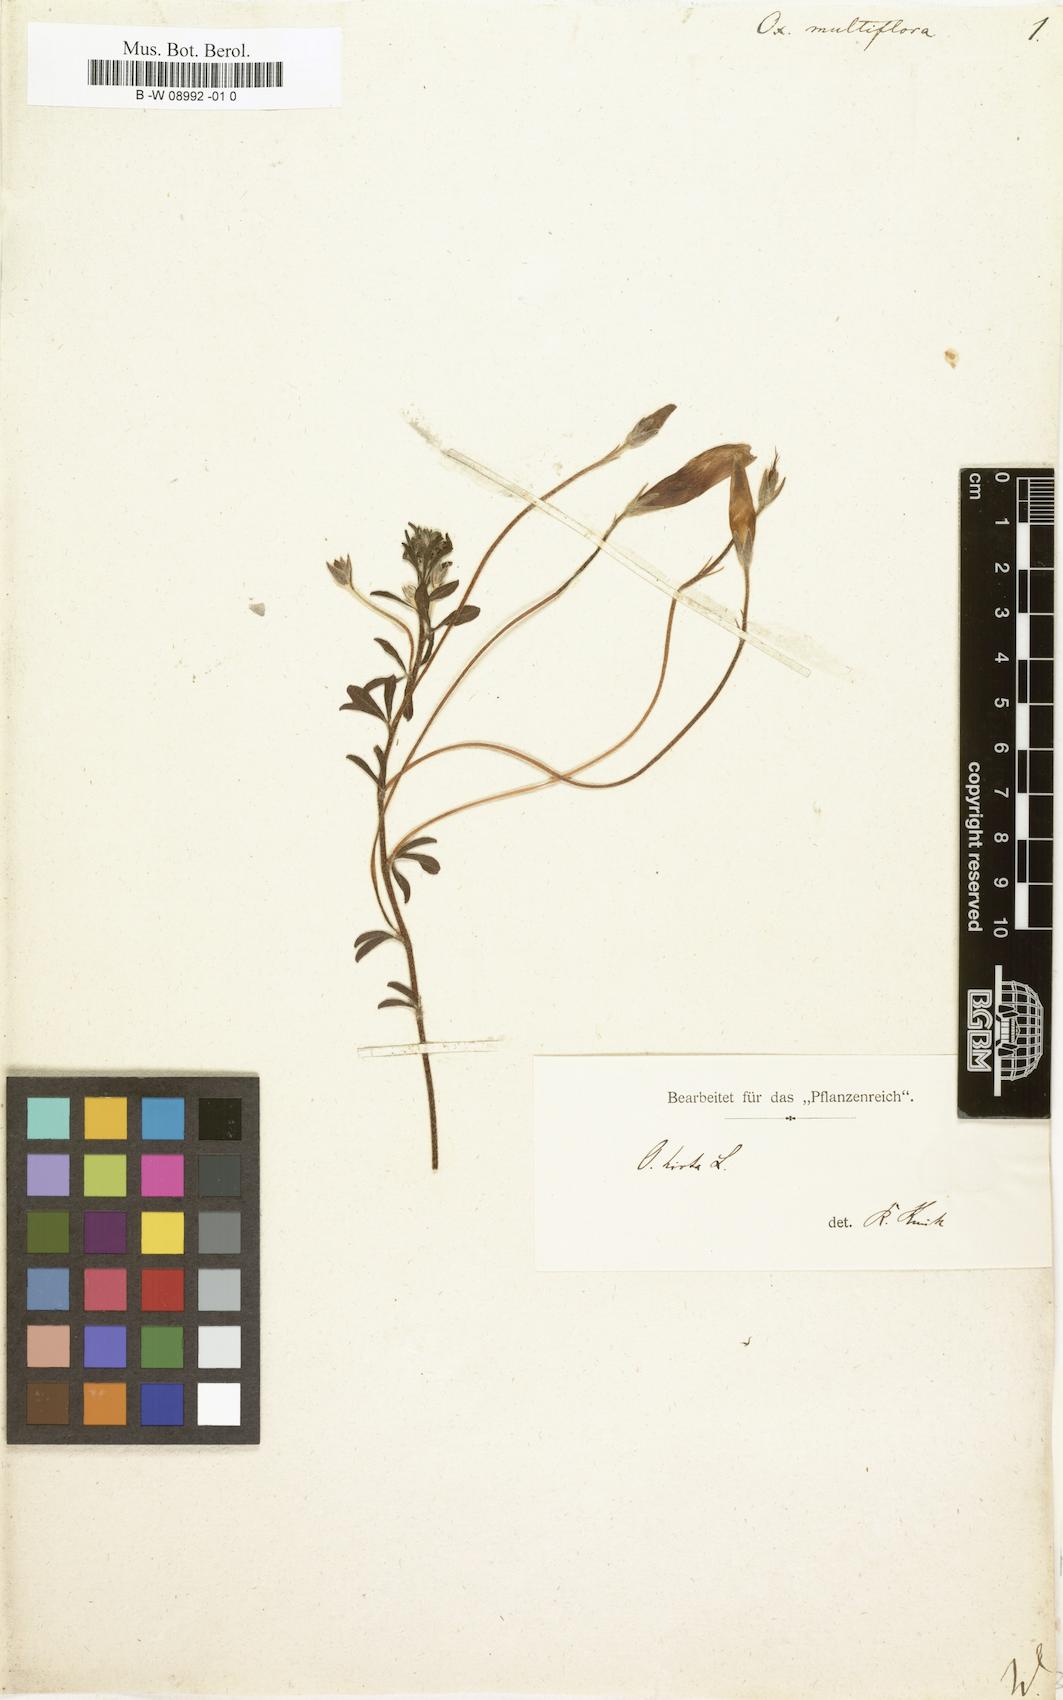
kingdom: Plantae
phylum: Tracheophyta
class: Magnoliopsida
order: Oxalidales
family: Oxalidaceae
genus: Oxalis
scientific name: Oxalis hirta
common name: Tropical woodsorrel
